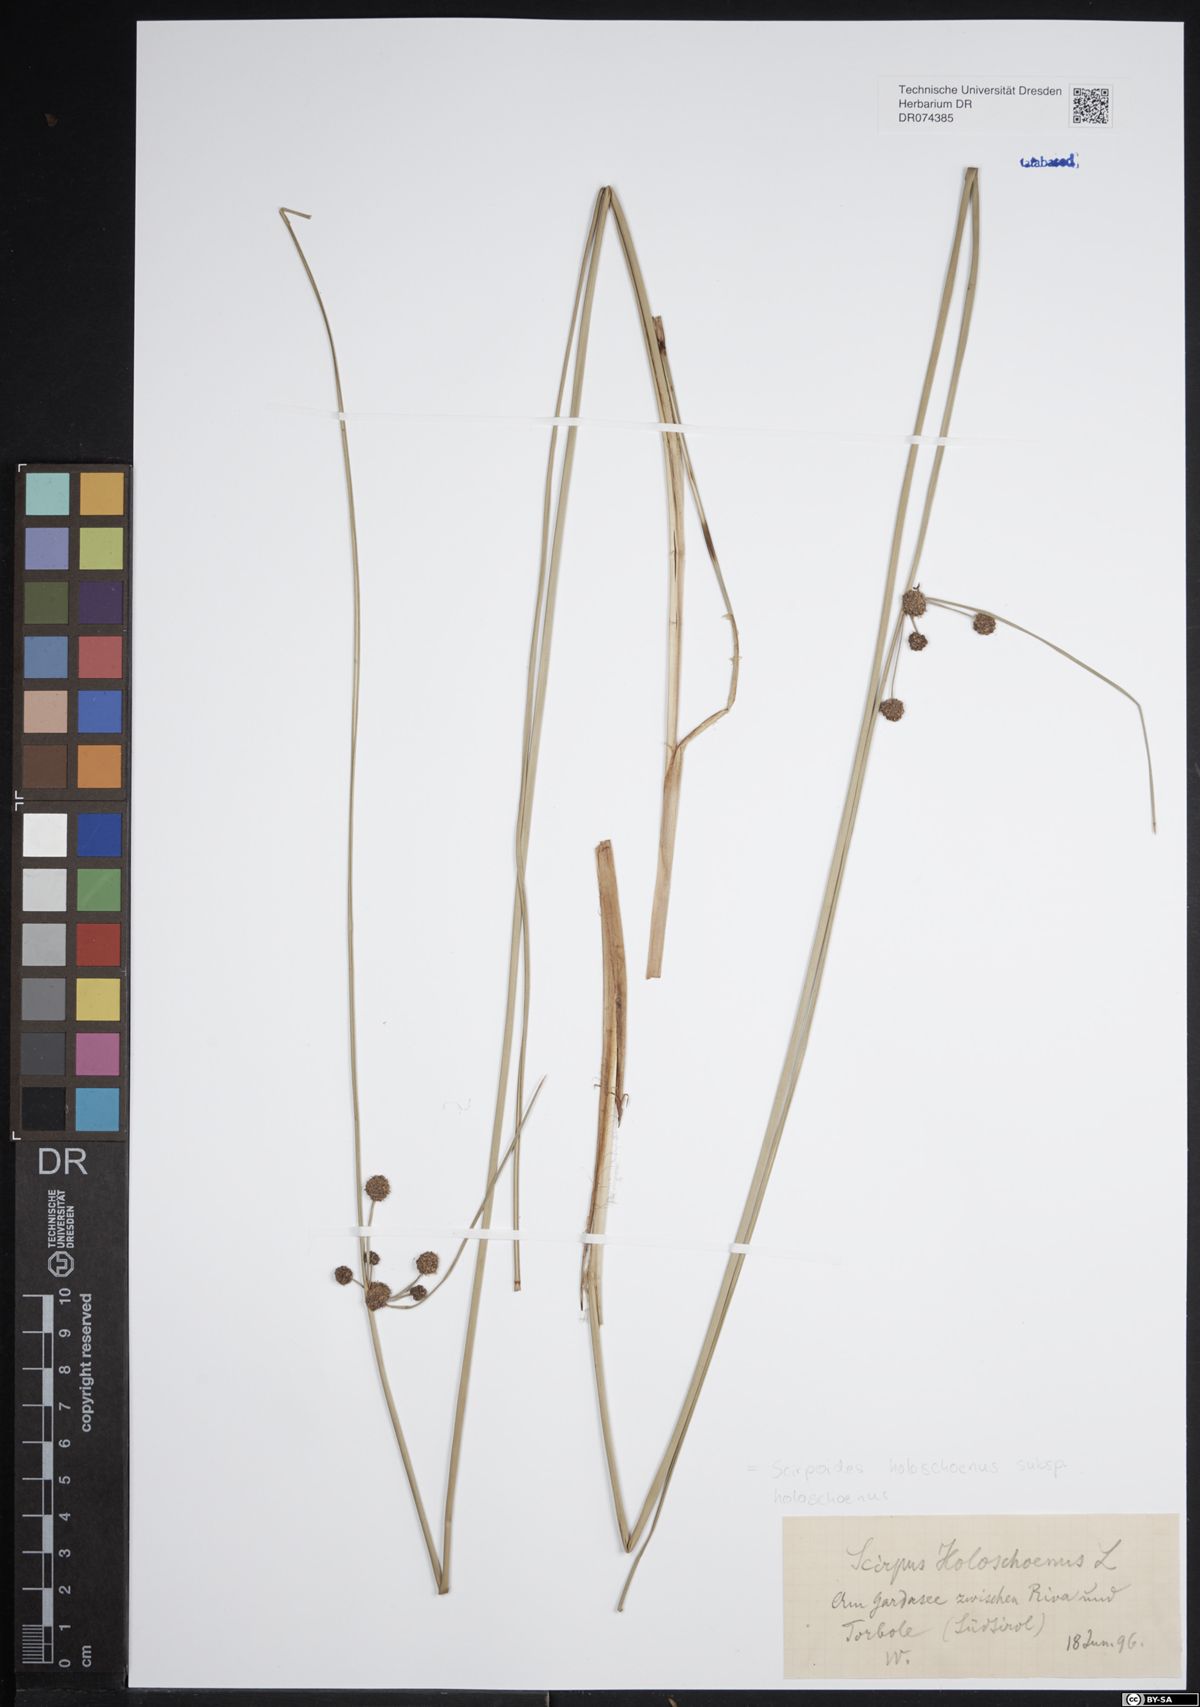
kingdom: Plantae
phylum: Tracheophyta
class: Liliopsida
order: Poales
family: Cyperaceae
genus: Scirpoides
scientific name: Scirpoides holoschoenus
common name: Round-headed club-rush
